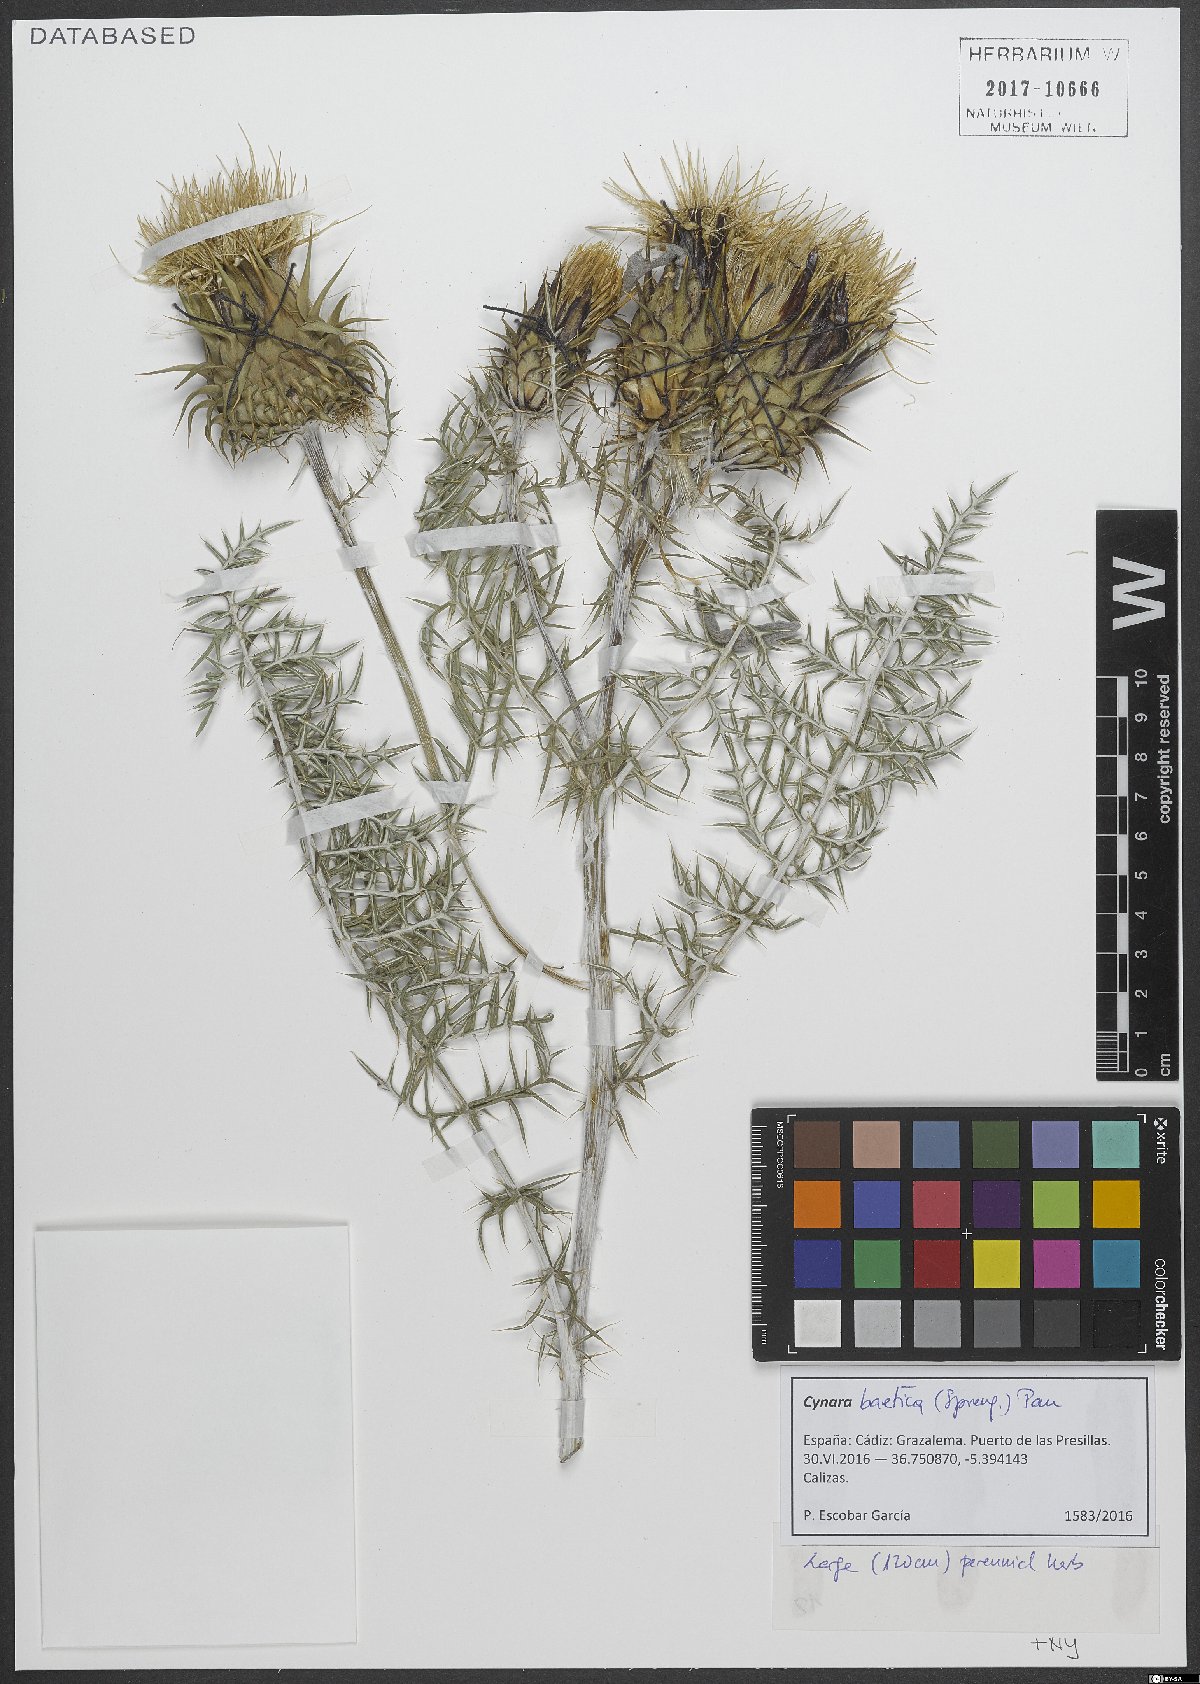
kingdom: Plantae
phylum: Tracheophyta
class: Magnoliopsida
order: Asterales
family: Asteraceae
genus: Cynara
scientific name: Cynara baetica
